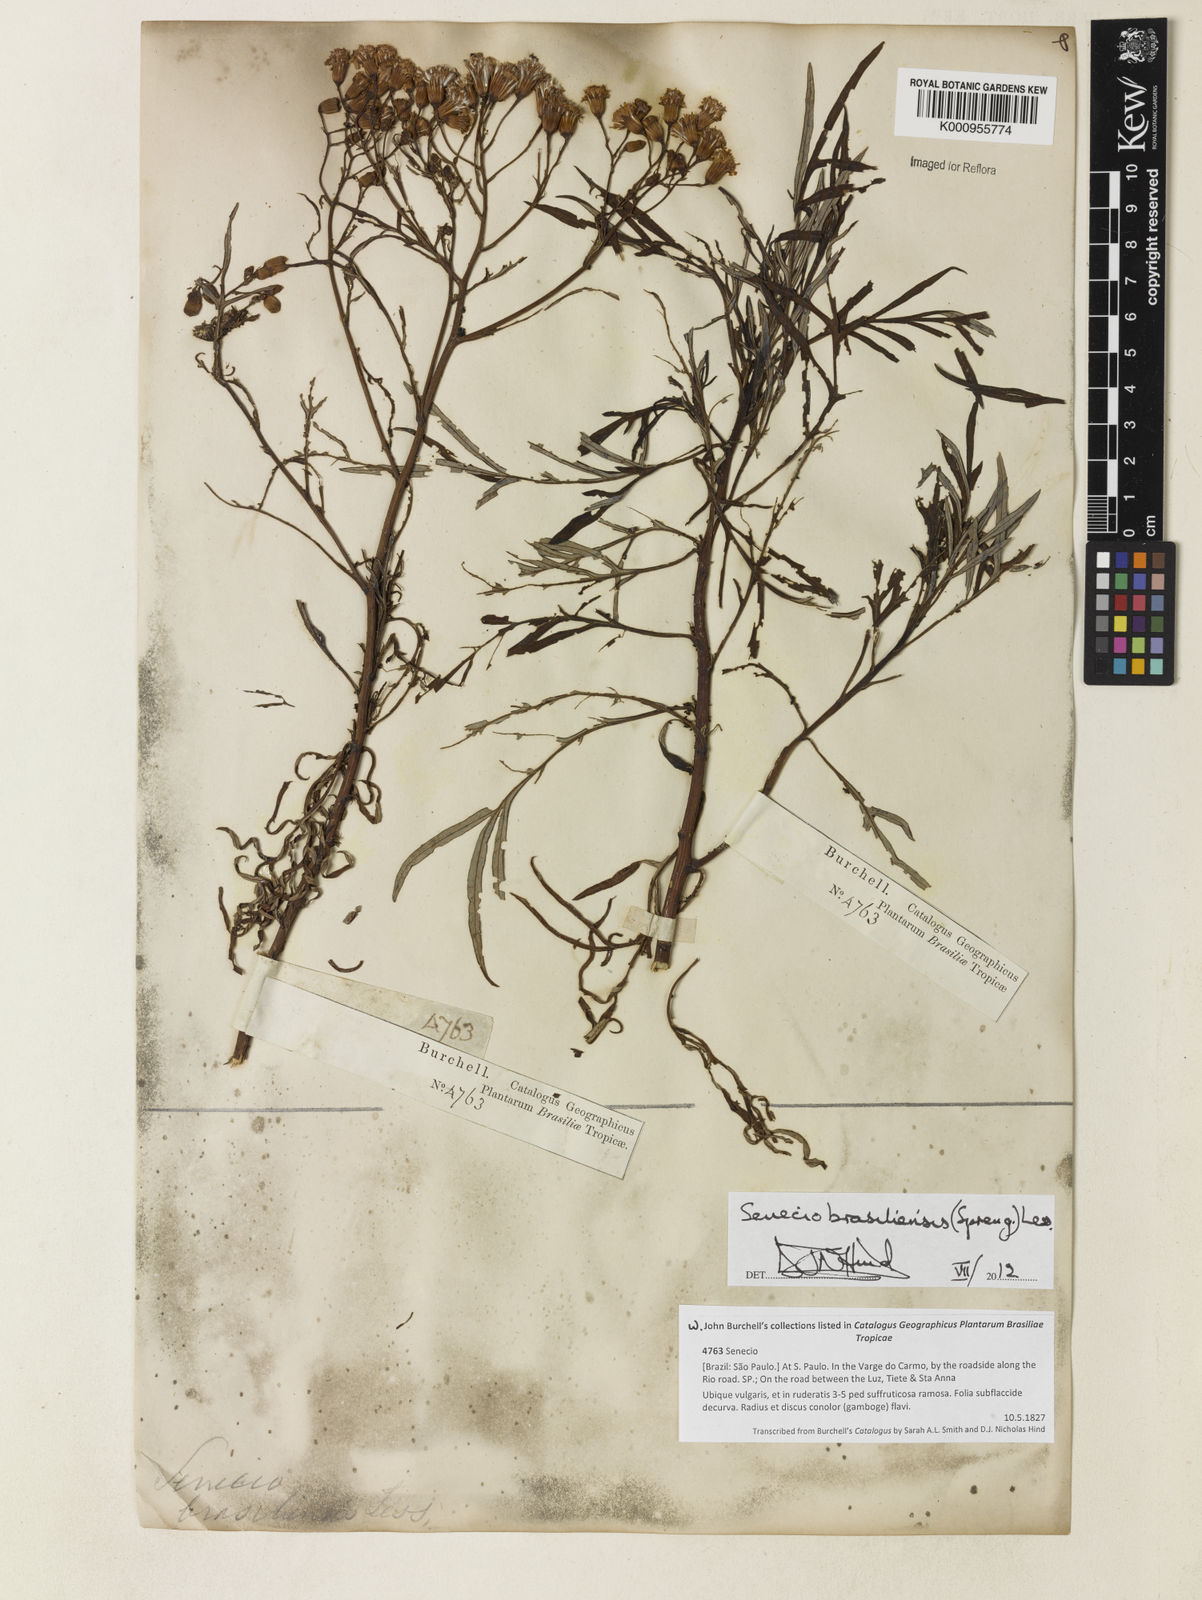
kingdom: Plantae
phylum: Tracheophyta
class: Magnoliopsida
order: Asterales
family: Asteraceae
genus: Senecio
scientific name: Senecio brasiliensis
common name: Hemp-leaf ragwort
